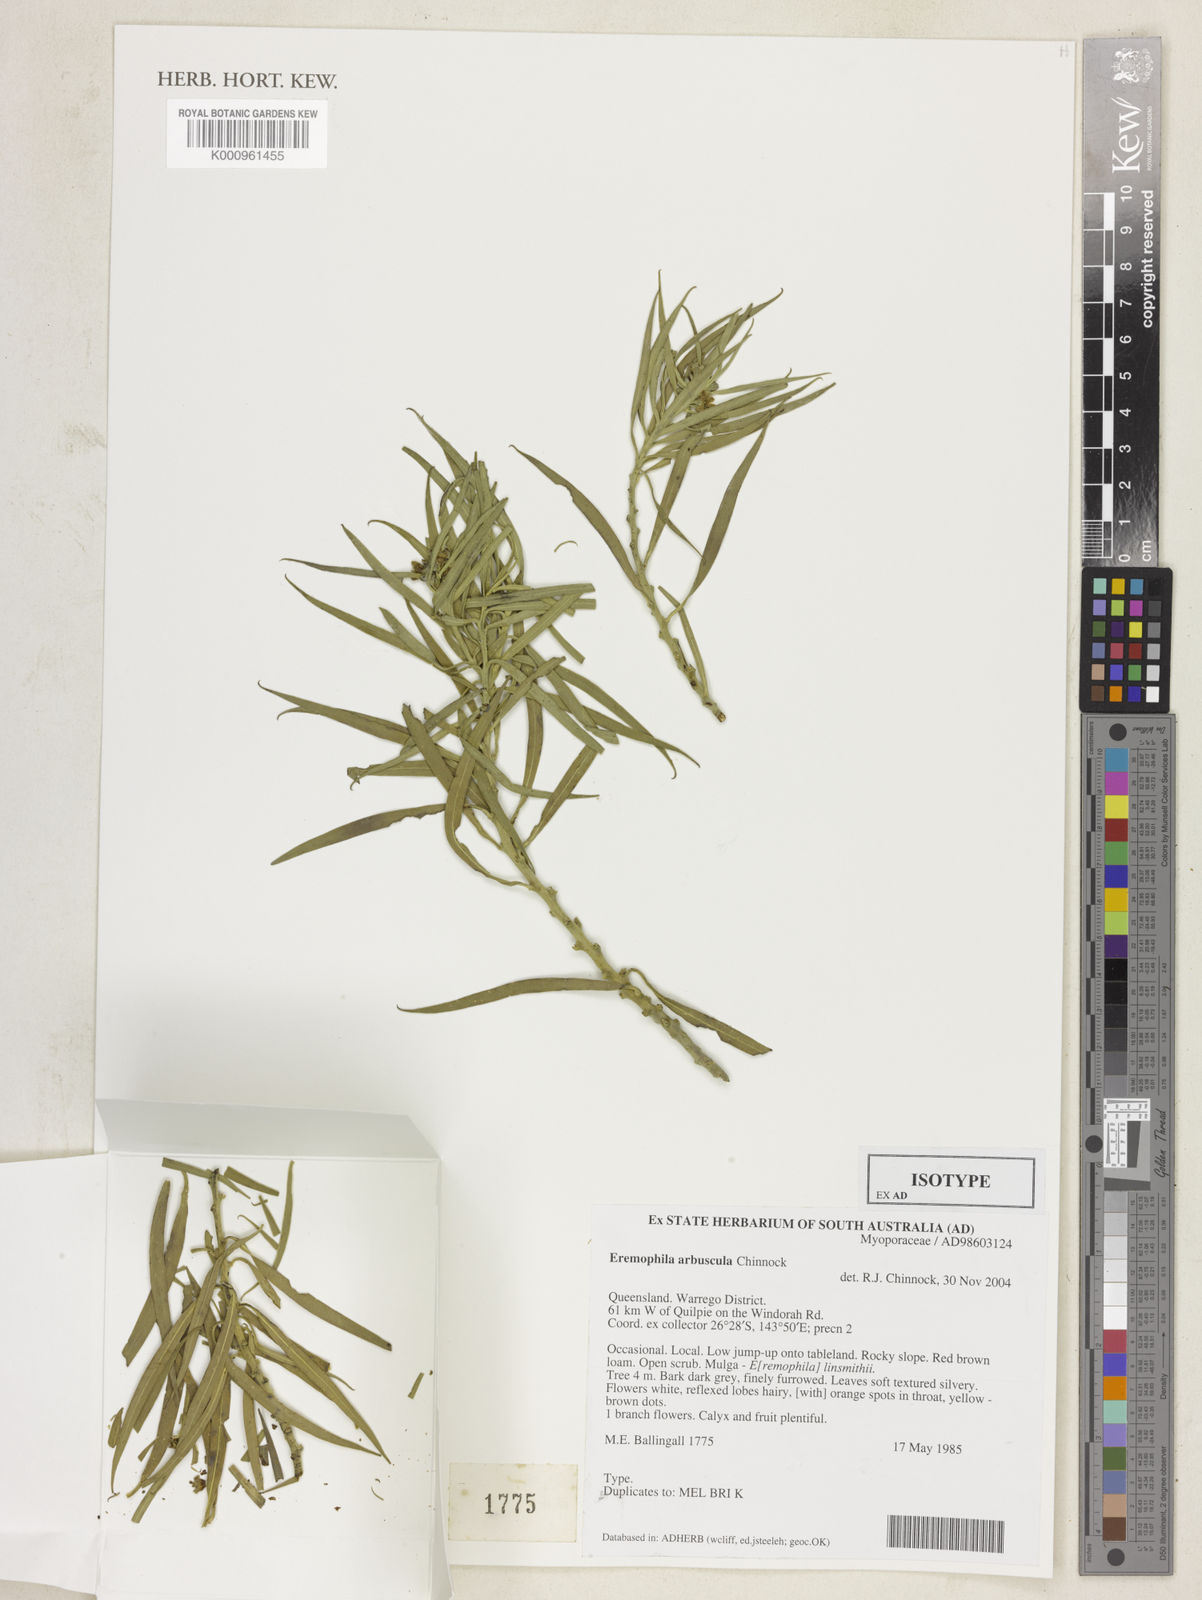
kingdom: Plantae
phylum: Tracheophyta
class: Magnoliopsida
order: Lamiales
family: Scrophulariaceae
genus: Eremophila
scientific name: Eremophila arbuscula
